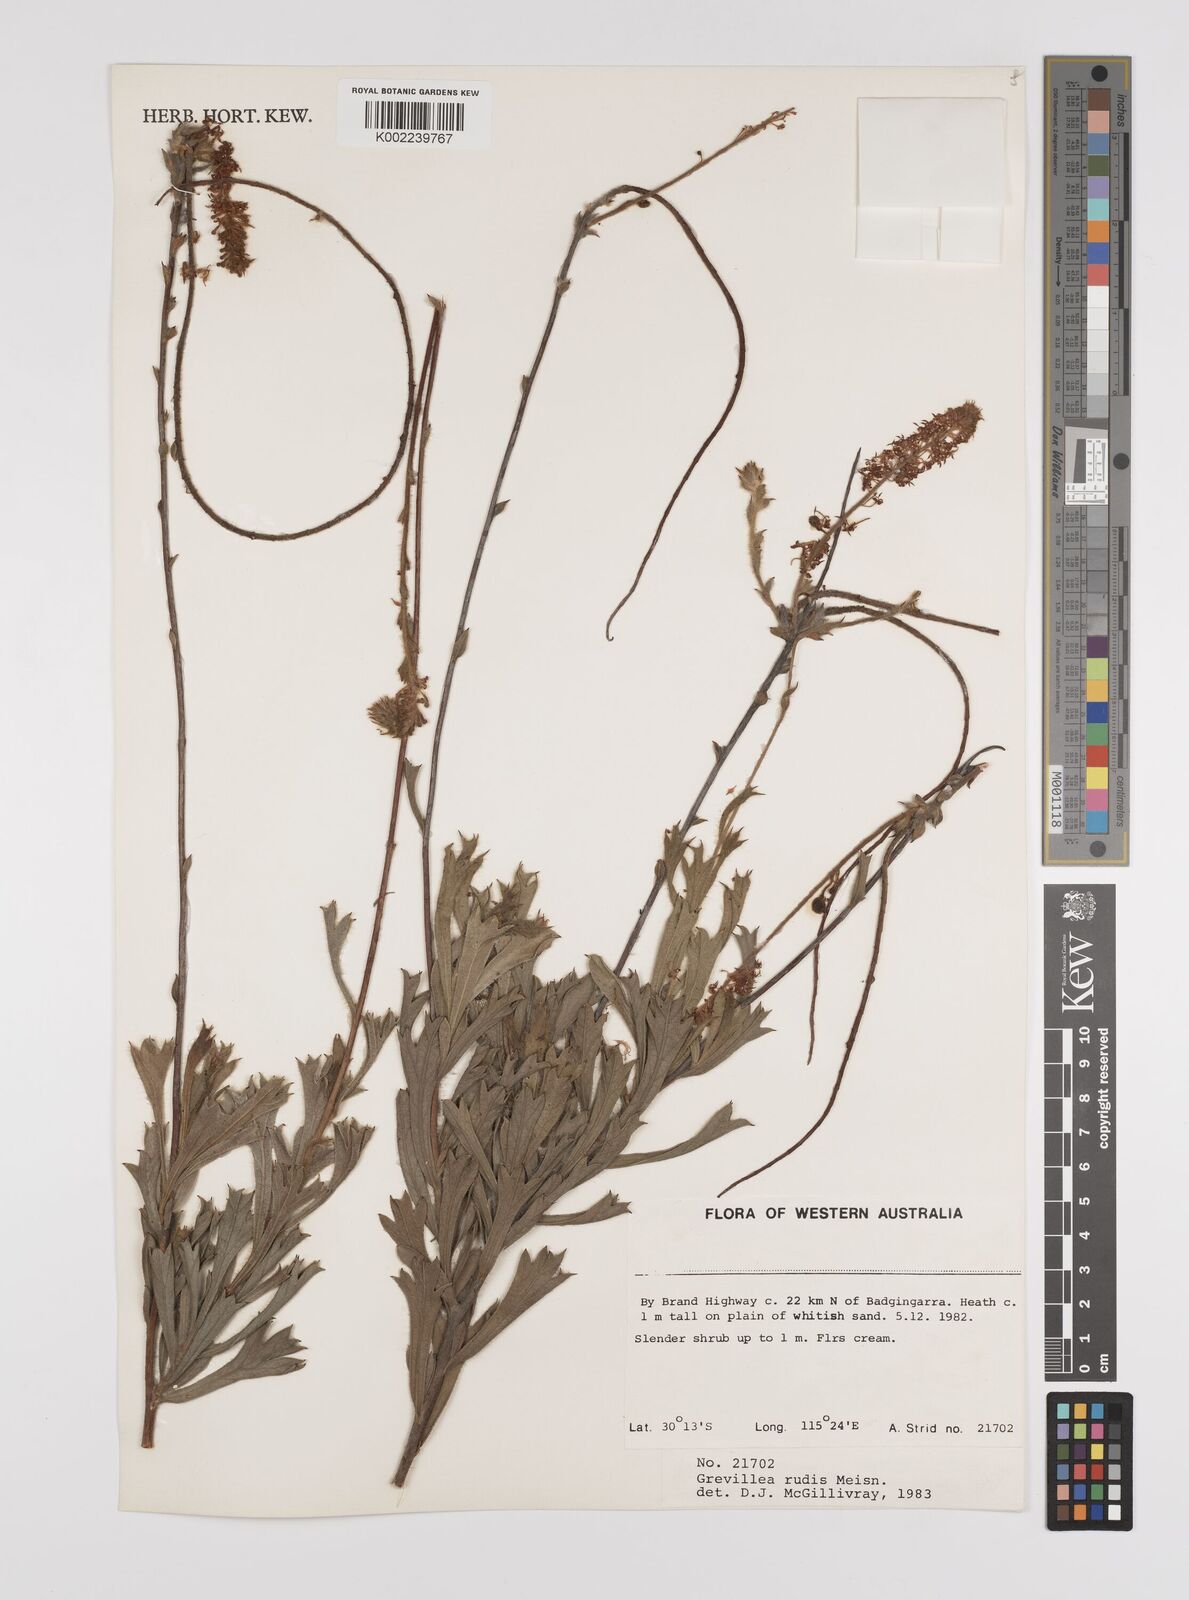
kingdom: Plantae
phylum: Tracheophyta
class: Magnoliopsida
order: Proteales
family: Proteaceae
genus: Grevillea
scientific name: Grevillea rudis
